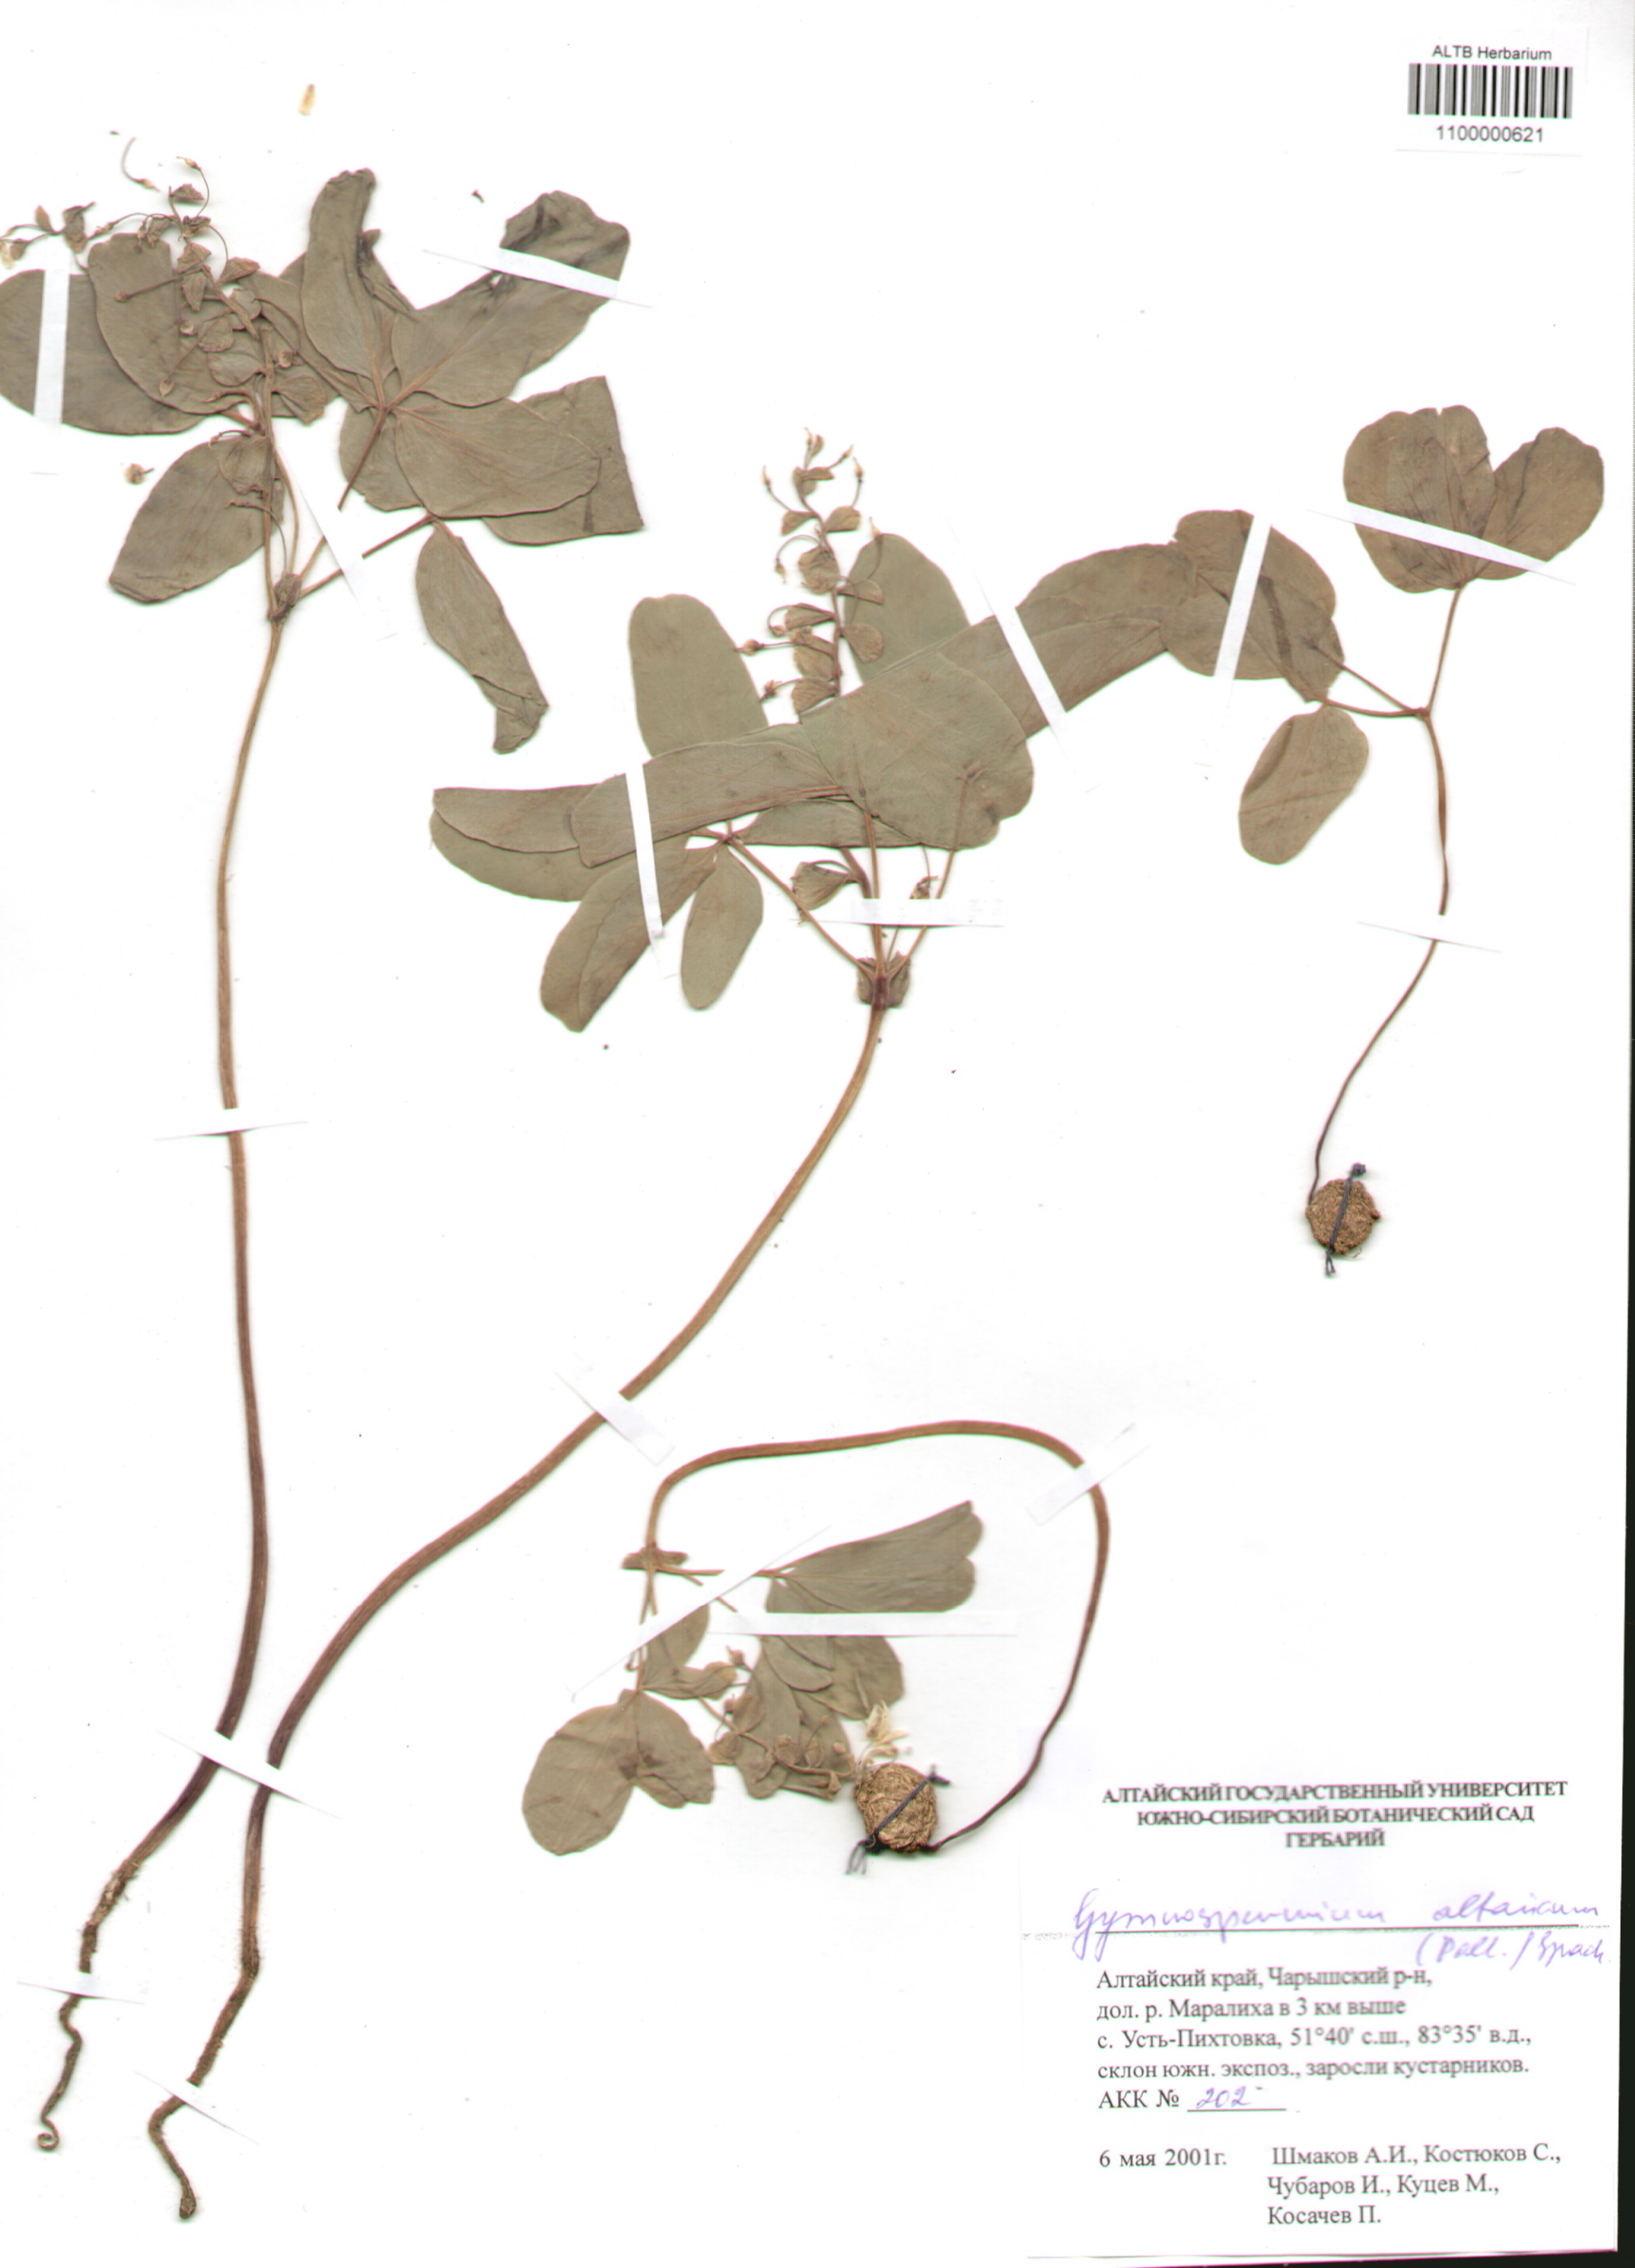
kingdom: Plantae
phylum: Tracheophyta
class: Magnoliopsida
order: Ranunculales
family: Berberidaceae
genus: Gymnospermium
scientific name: Gymnospermium altaicum
